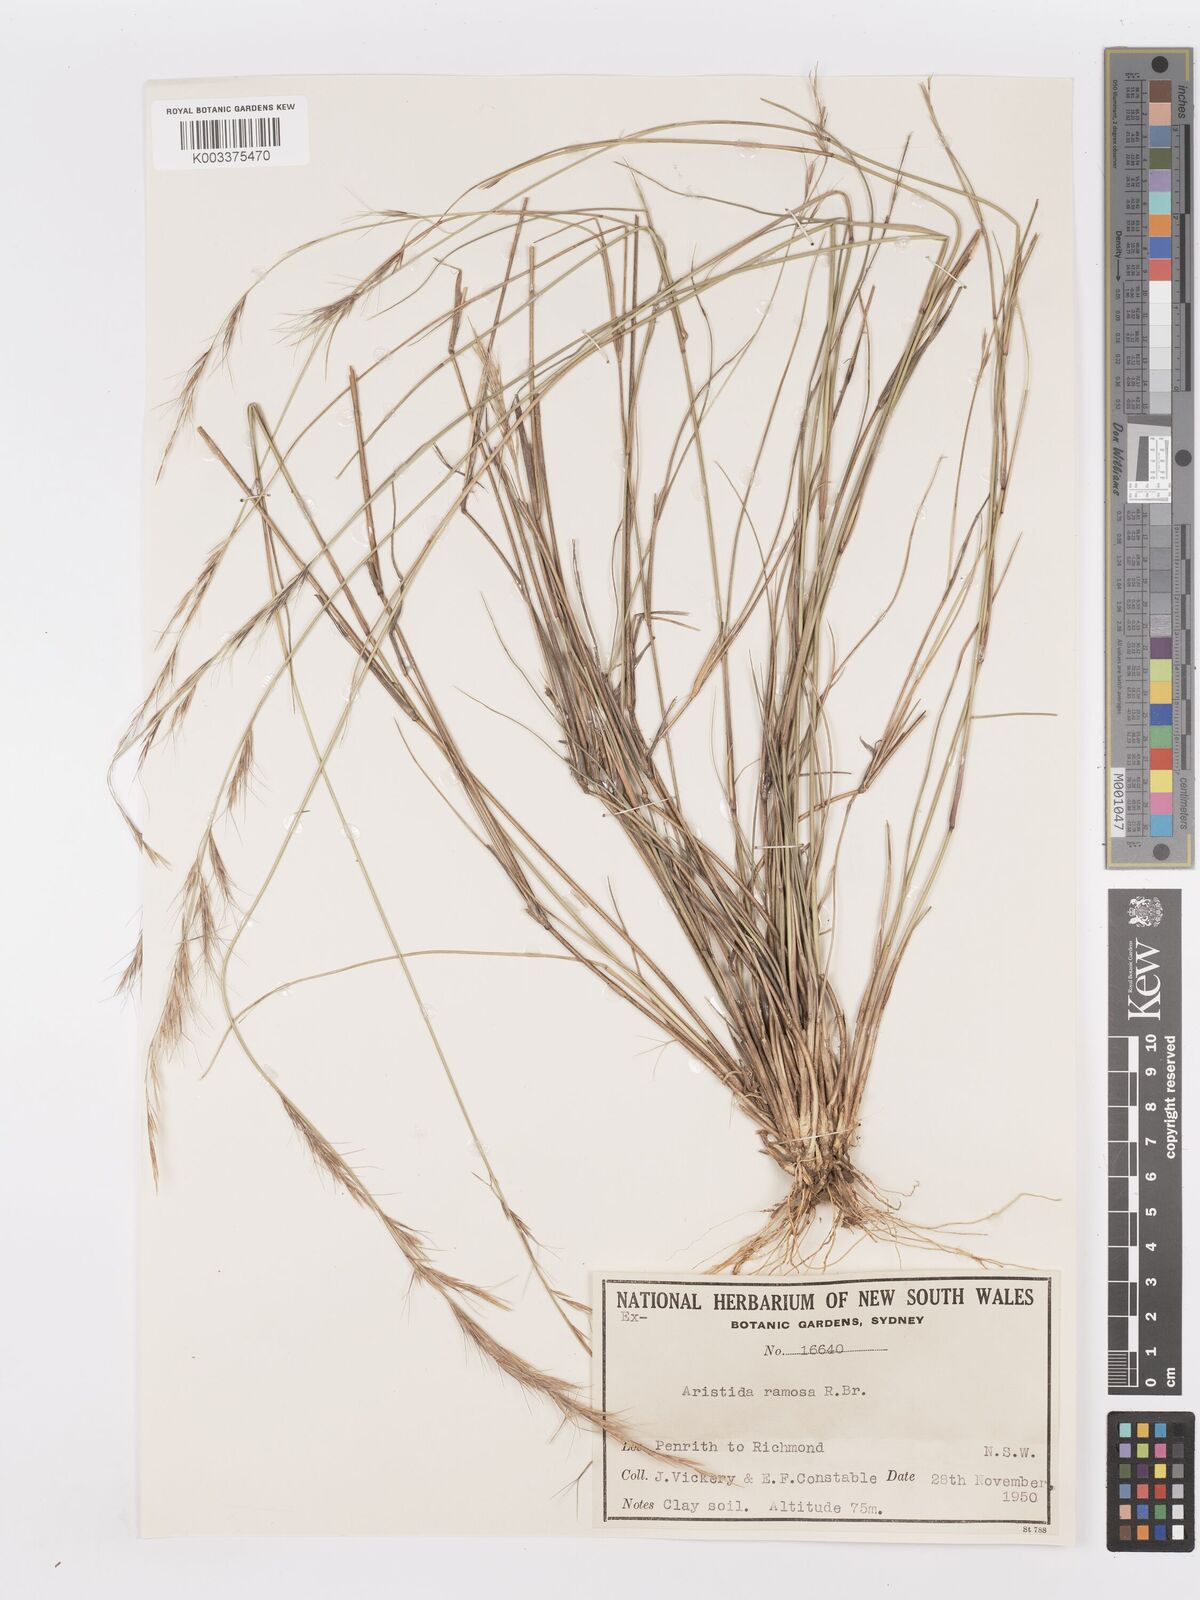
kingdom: Plantae
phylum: Tracheophyta
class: Liliopsida
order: Poales
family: Poaceae
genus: Aristida
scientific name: Aristida ramosa
